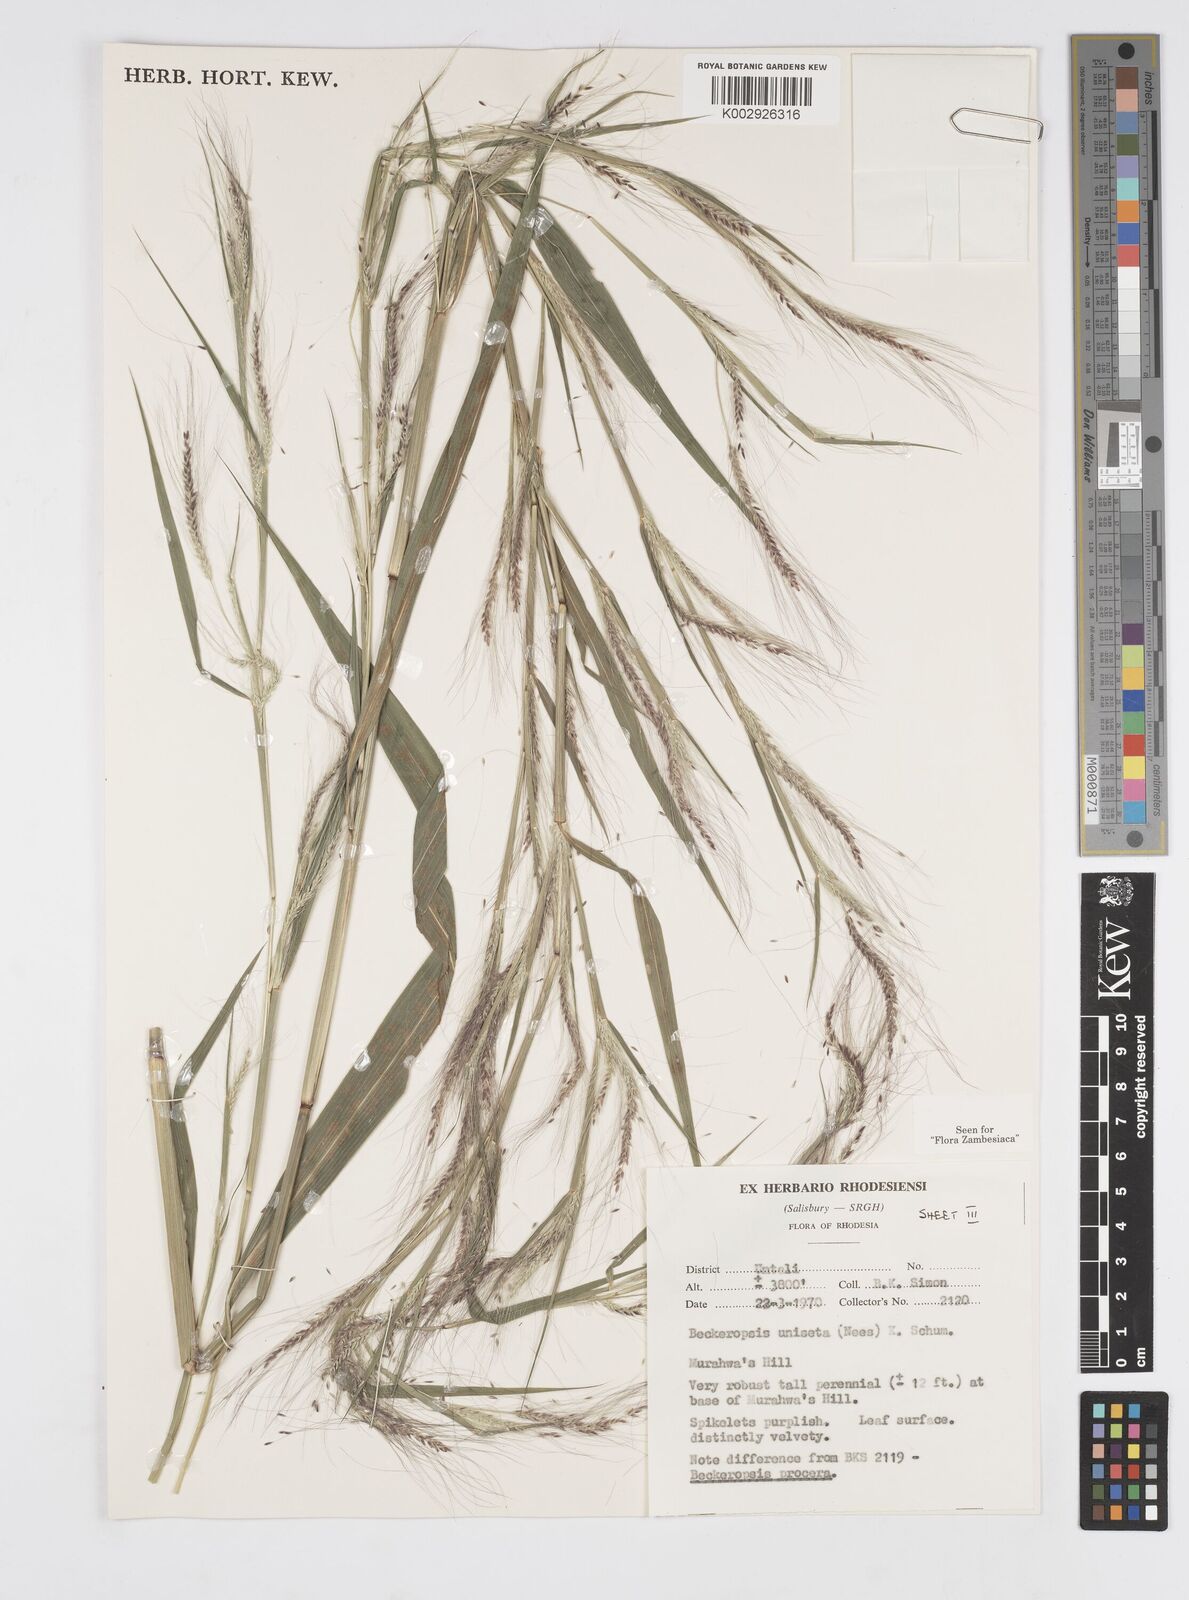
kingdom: Plantae
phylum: Tracheophyta
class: Liliopsida
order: Poales
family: Poaceae
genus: Cenchrus
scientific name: Cenchrus unisetus
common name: Natal grass
